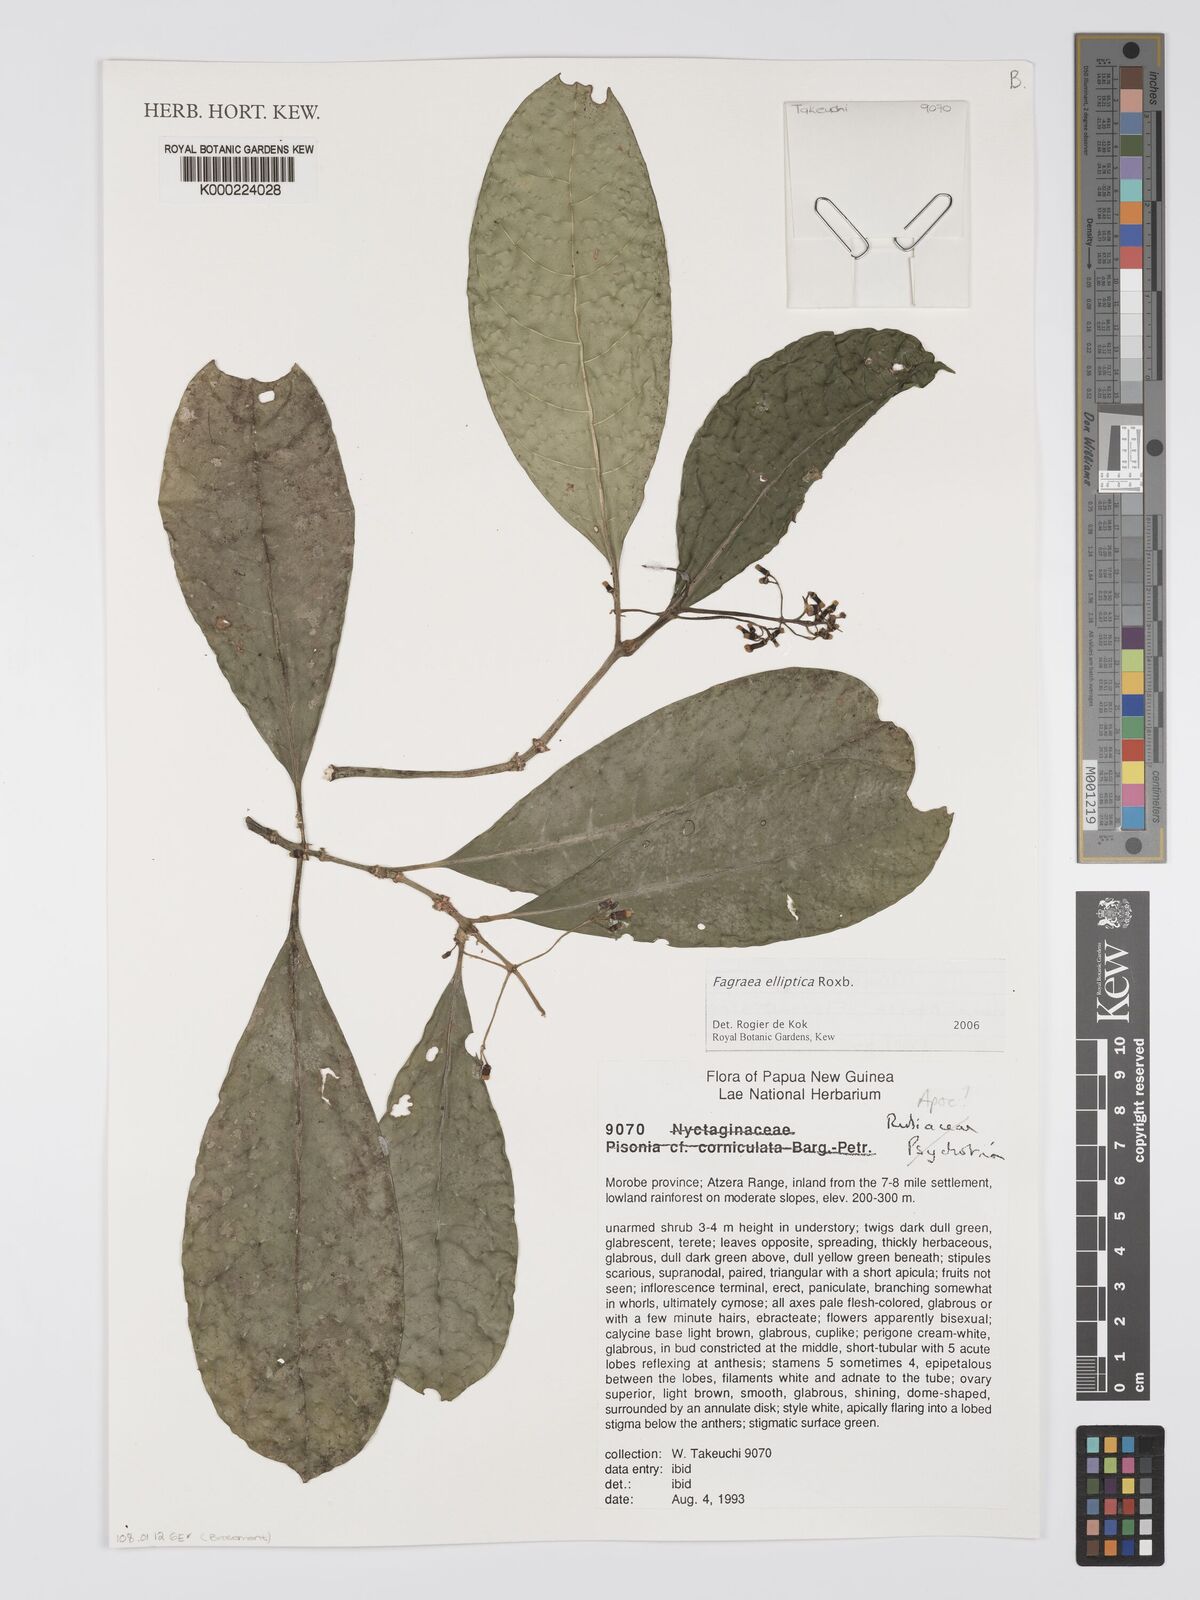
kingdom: Plantae
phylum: Tracheophyta
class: Magnoliopsida
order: Gentianales
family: Gentianaceae
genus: Picrophloeus
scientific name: Picrophloeus javanensis
